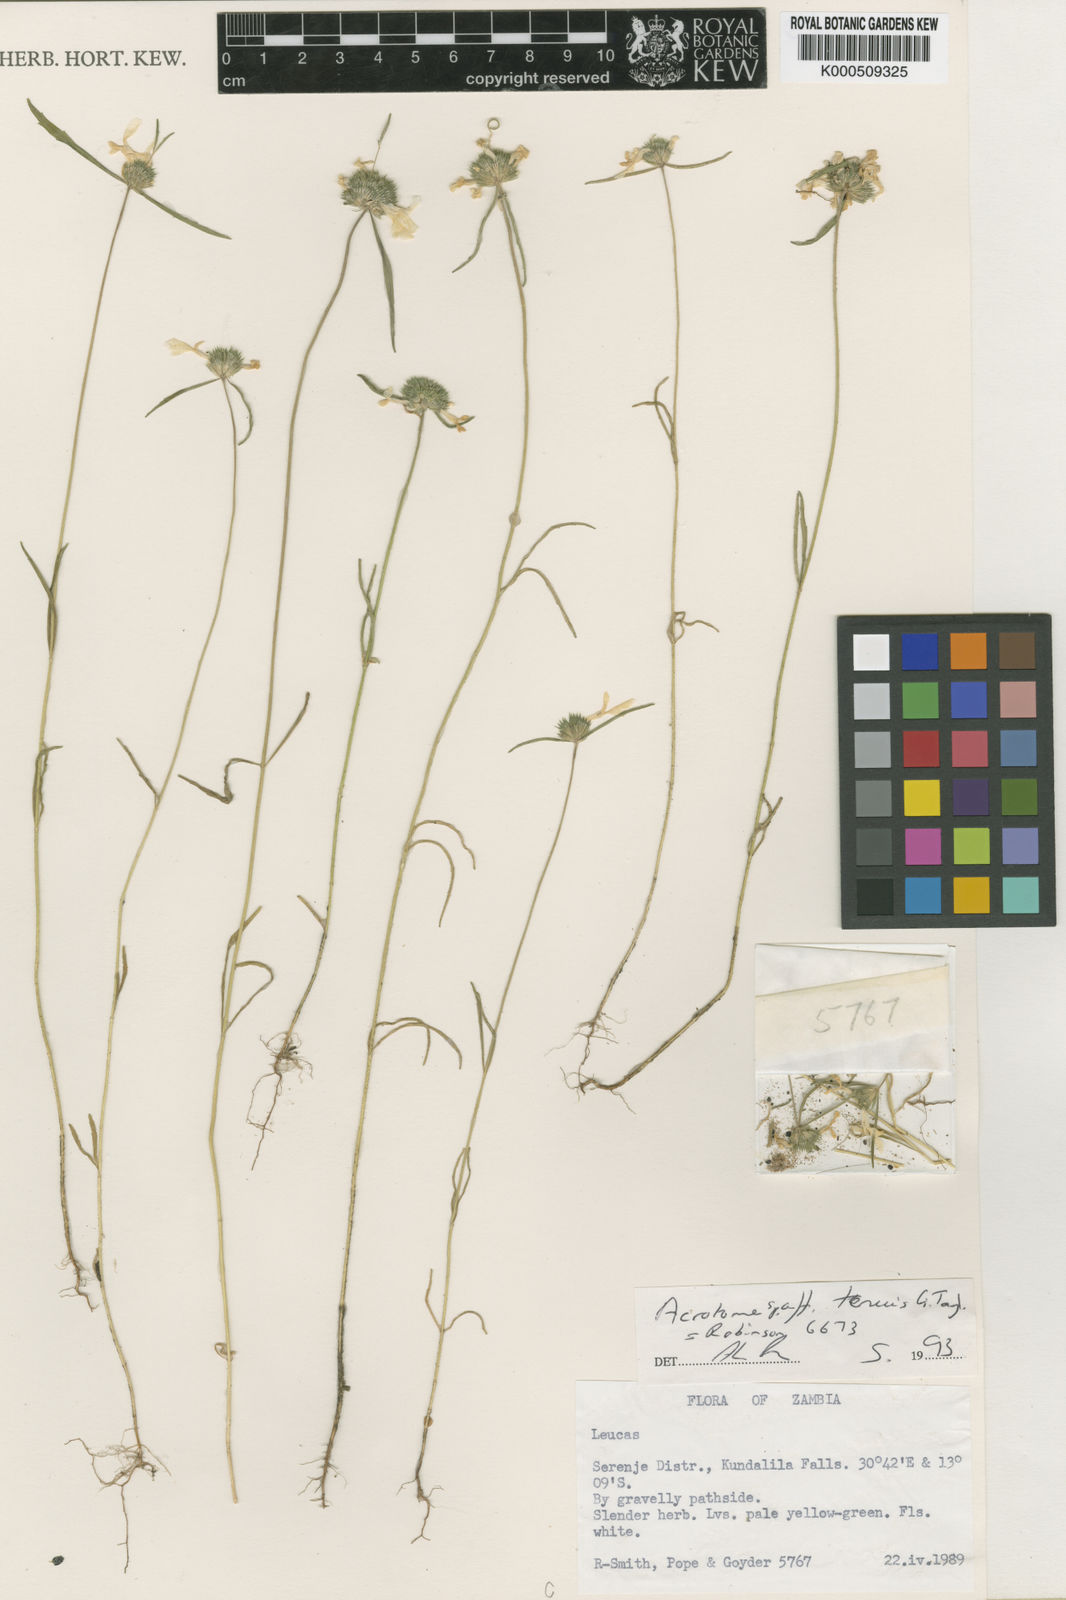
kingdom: Plantae
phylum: Tracheophyta
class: Magnoliopsida
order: Lamiales
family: Lamiaceae
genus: Acrotome
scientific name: Acrotome tenuis
